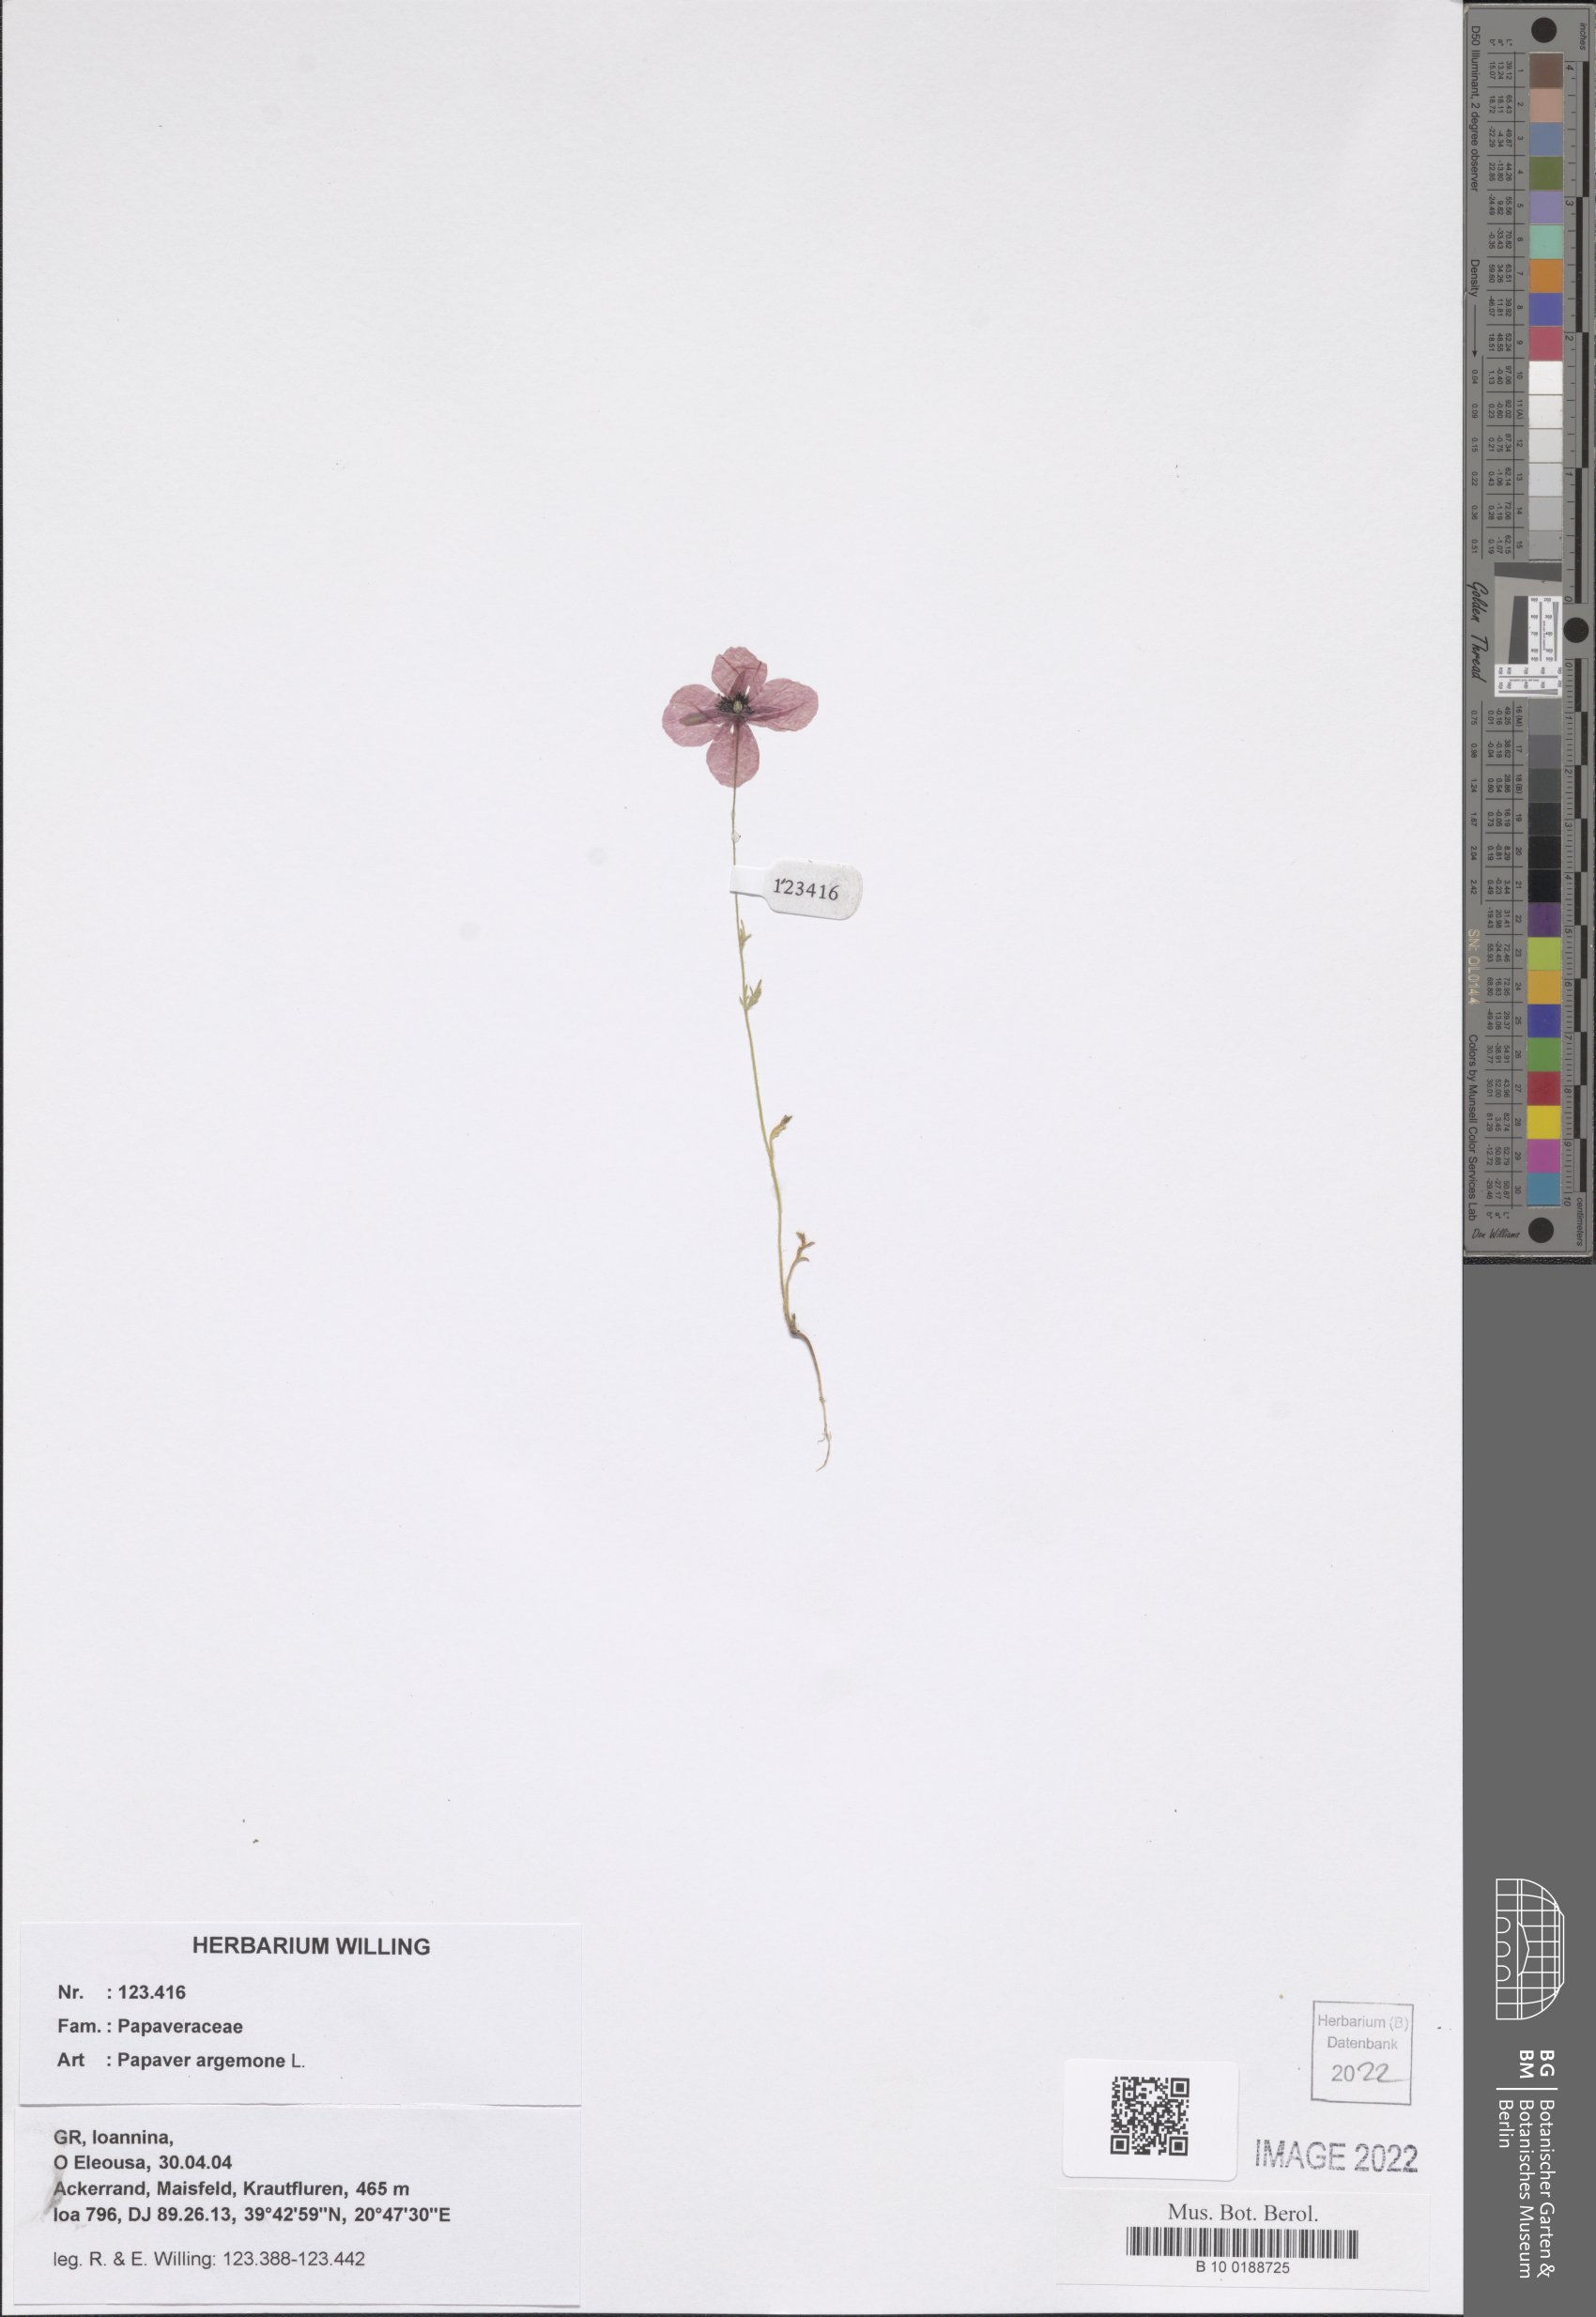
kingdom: Plantae
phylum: Tracheophyta
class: Magnoliopsida
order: Ranunculales
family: Papaveraceae
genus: Roemeria
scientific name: Roemeria argemone
